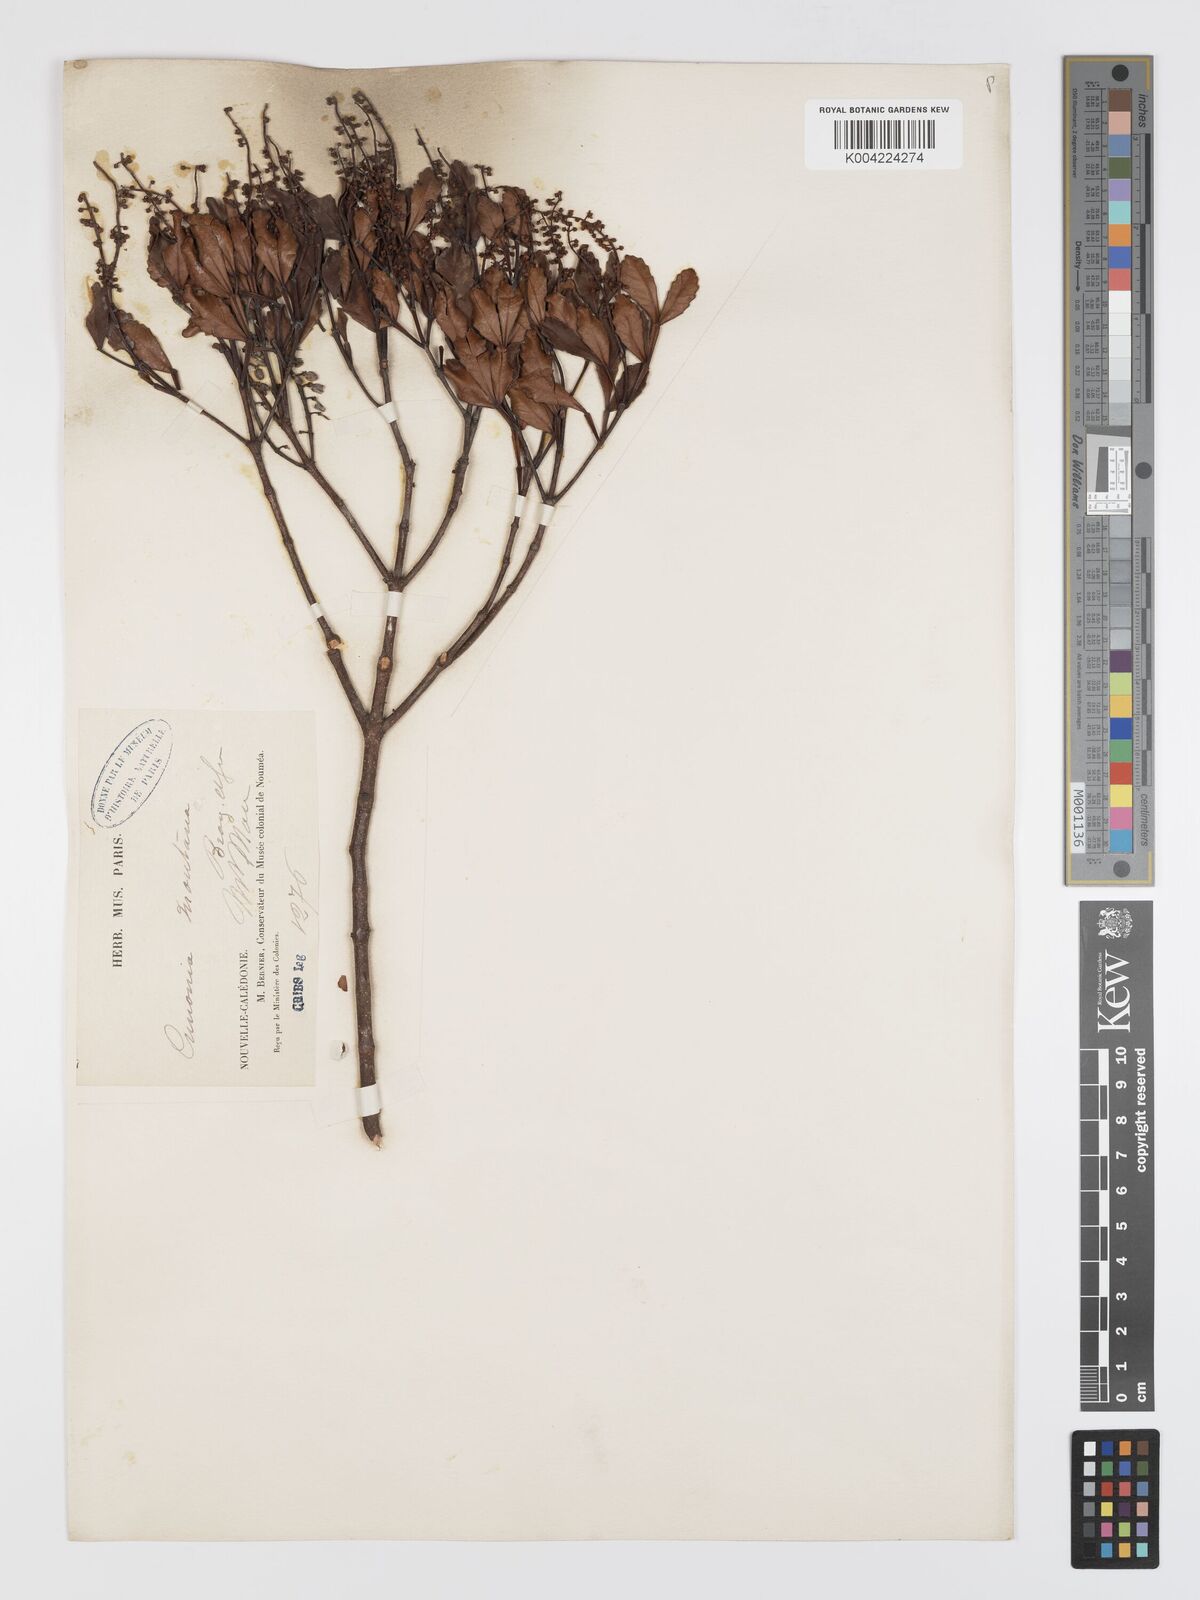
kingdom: Plantae
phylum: Tracheophyta
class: Magnoliopsida
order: Oxalidales
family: Cunoniaceae
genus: Cunonia
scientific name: Cunonia montana
